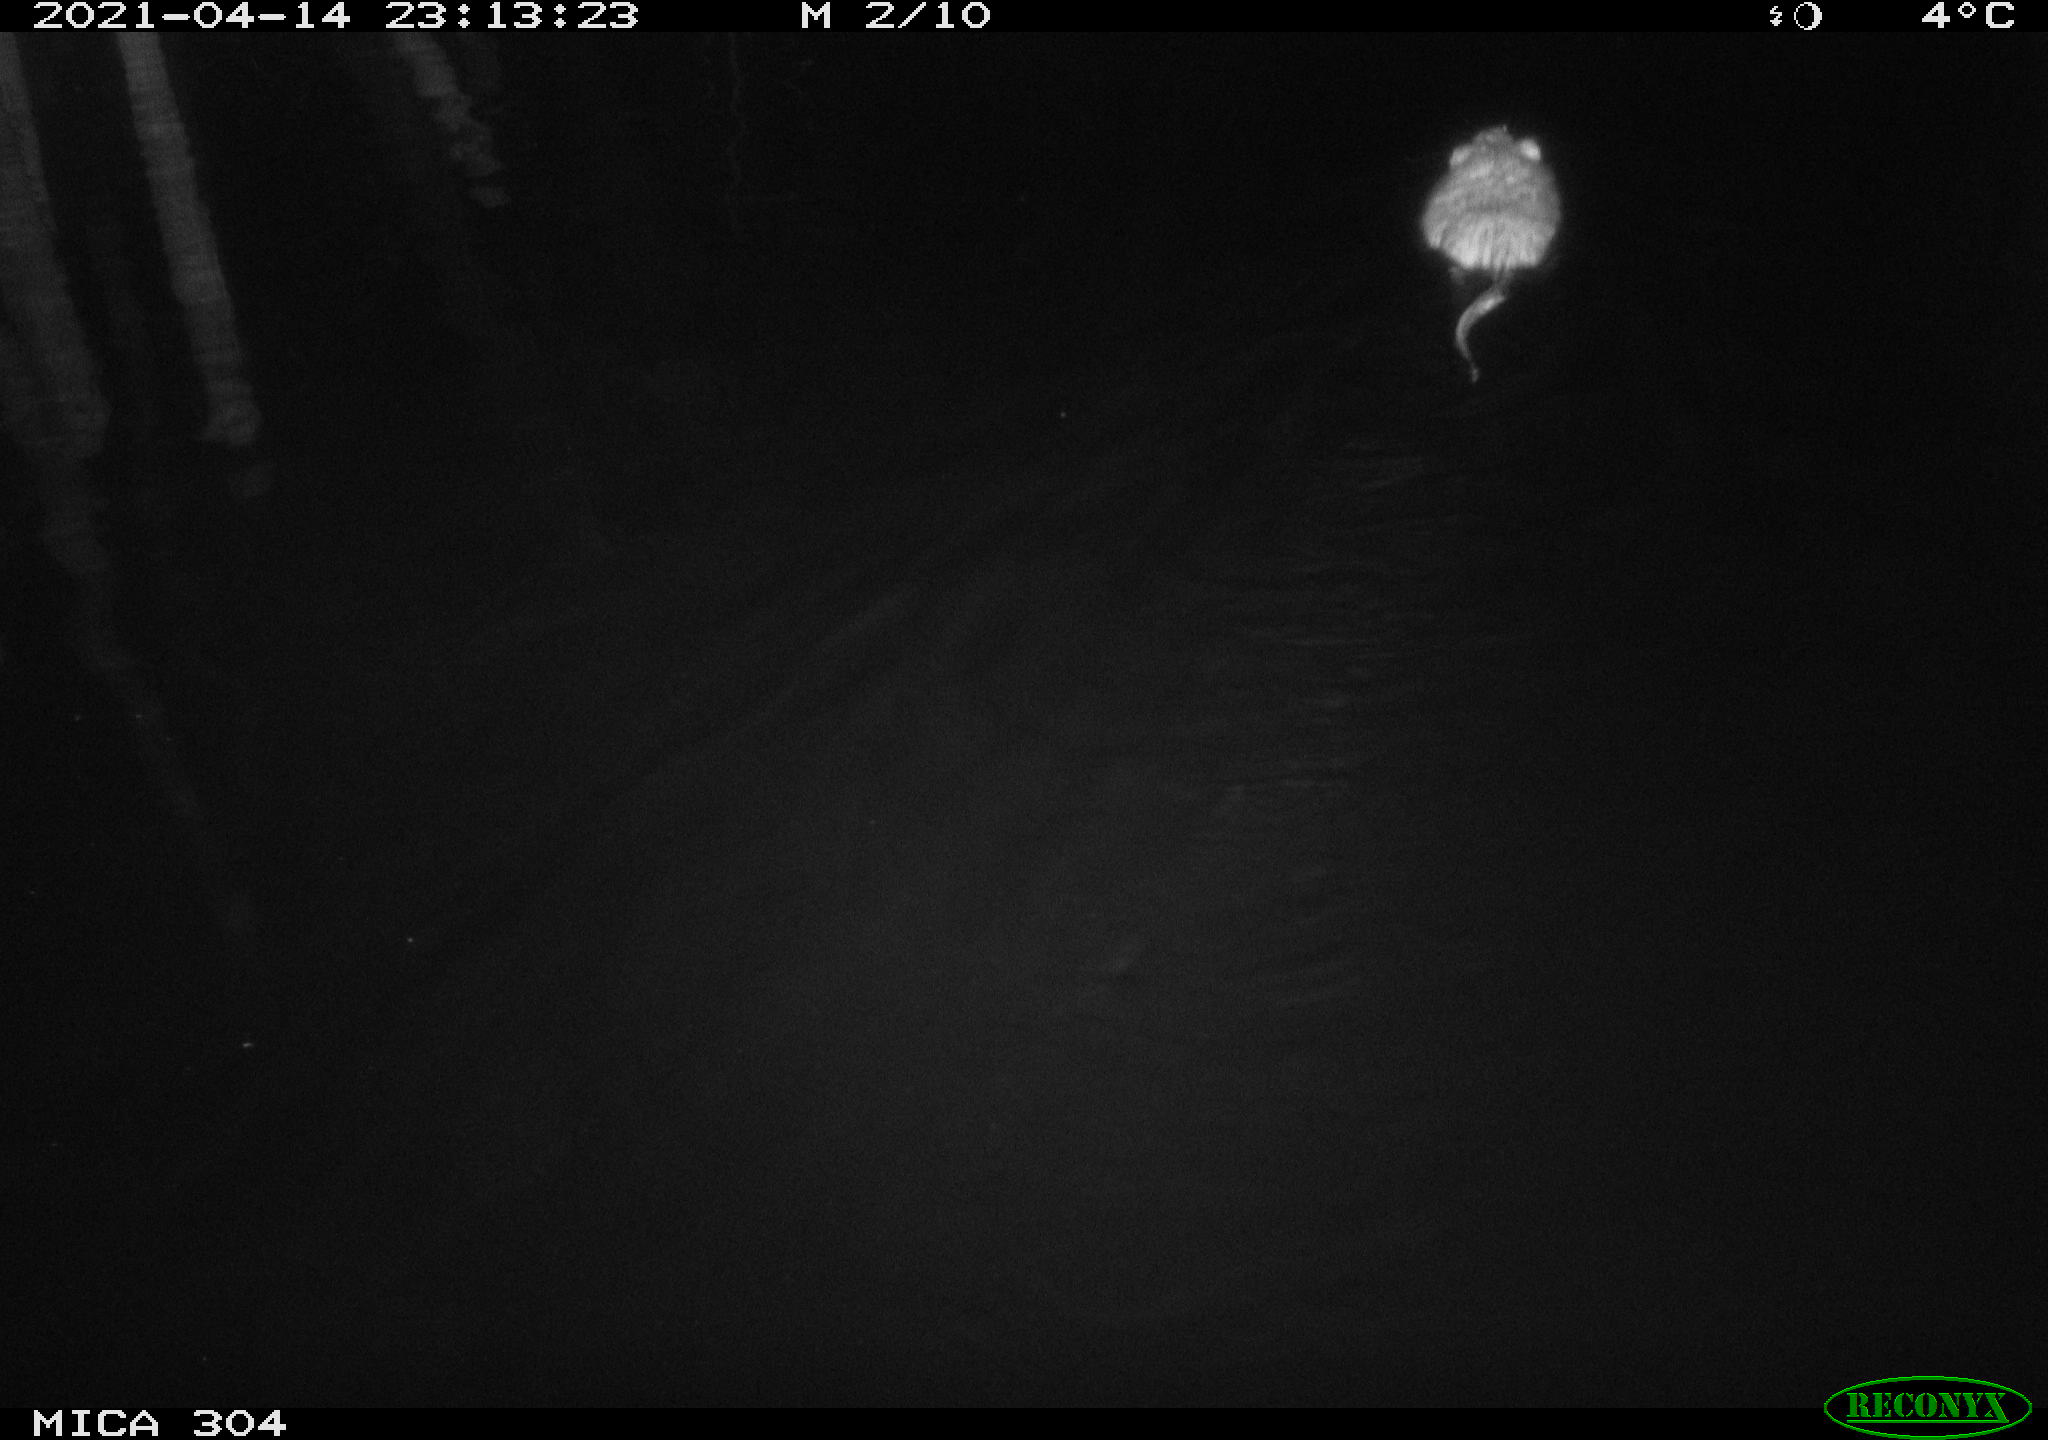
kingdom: Animalia
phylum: Chordata
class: Mammalia
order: Rodentia
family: Cricetidae
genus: Ondatra
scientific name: Ondatra zibethicus
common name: Muskrat
